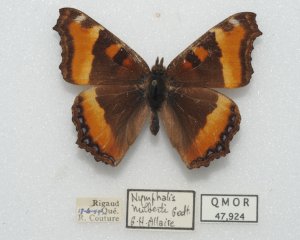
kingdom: Animalia
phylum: Arthropoda
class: Insecta
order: Lepidoptera
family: Nymphalidae
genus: Aglais
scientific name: Aglais milberti
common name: Milbert's Tortoiseshell
